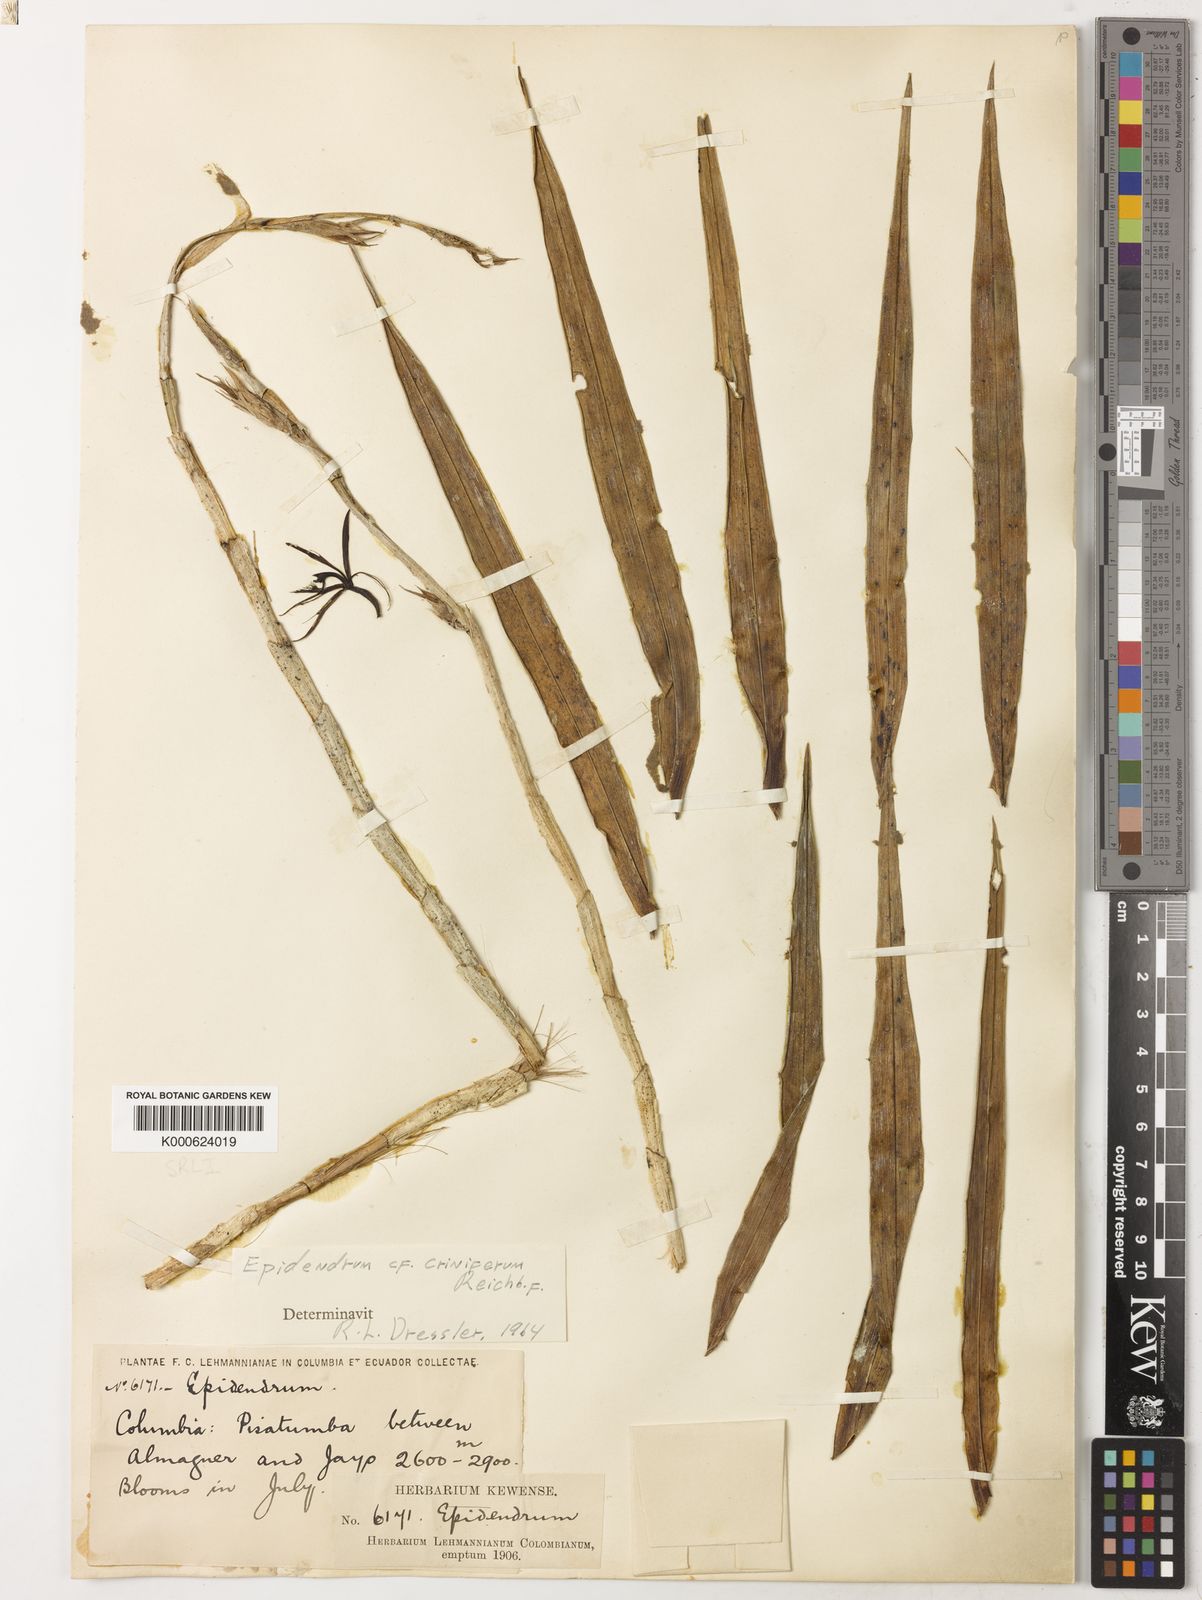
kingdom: Plantae
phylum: Tracheophyta
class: Liliopsida
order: Asparagales
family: Orchidaceae
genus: Epidendrum
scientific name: Epidendrum criniferum
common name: Bract carrying epidendrum
